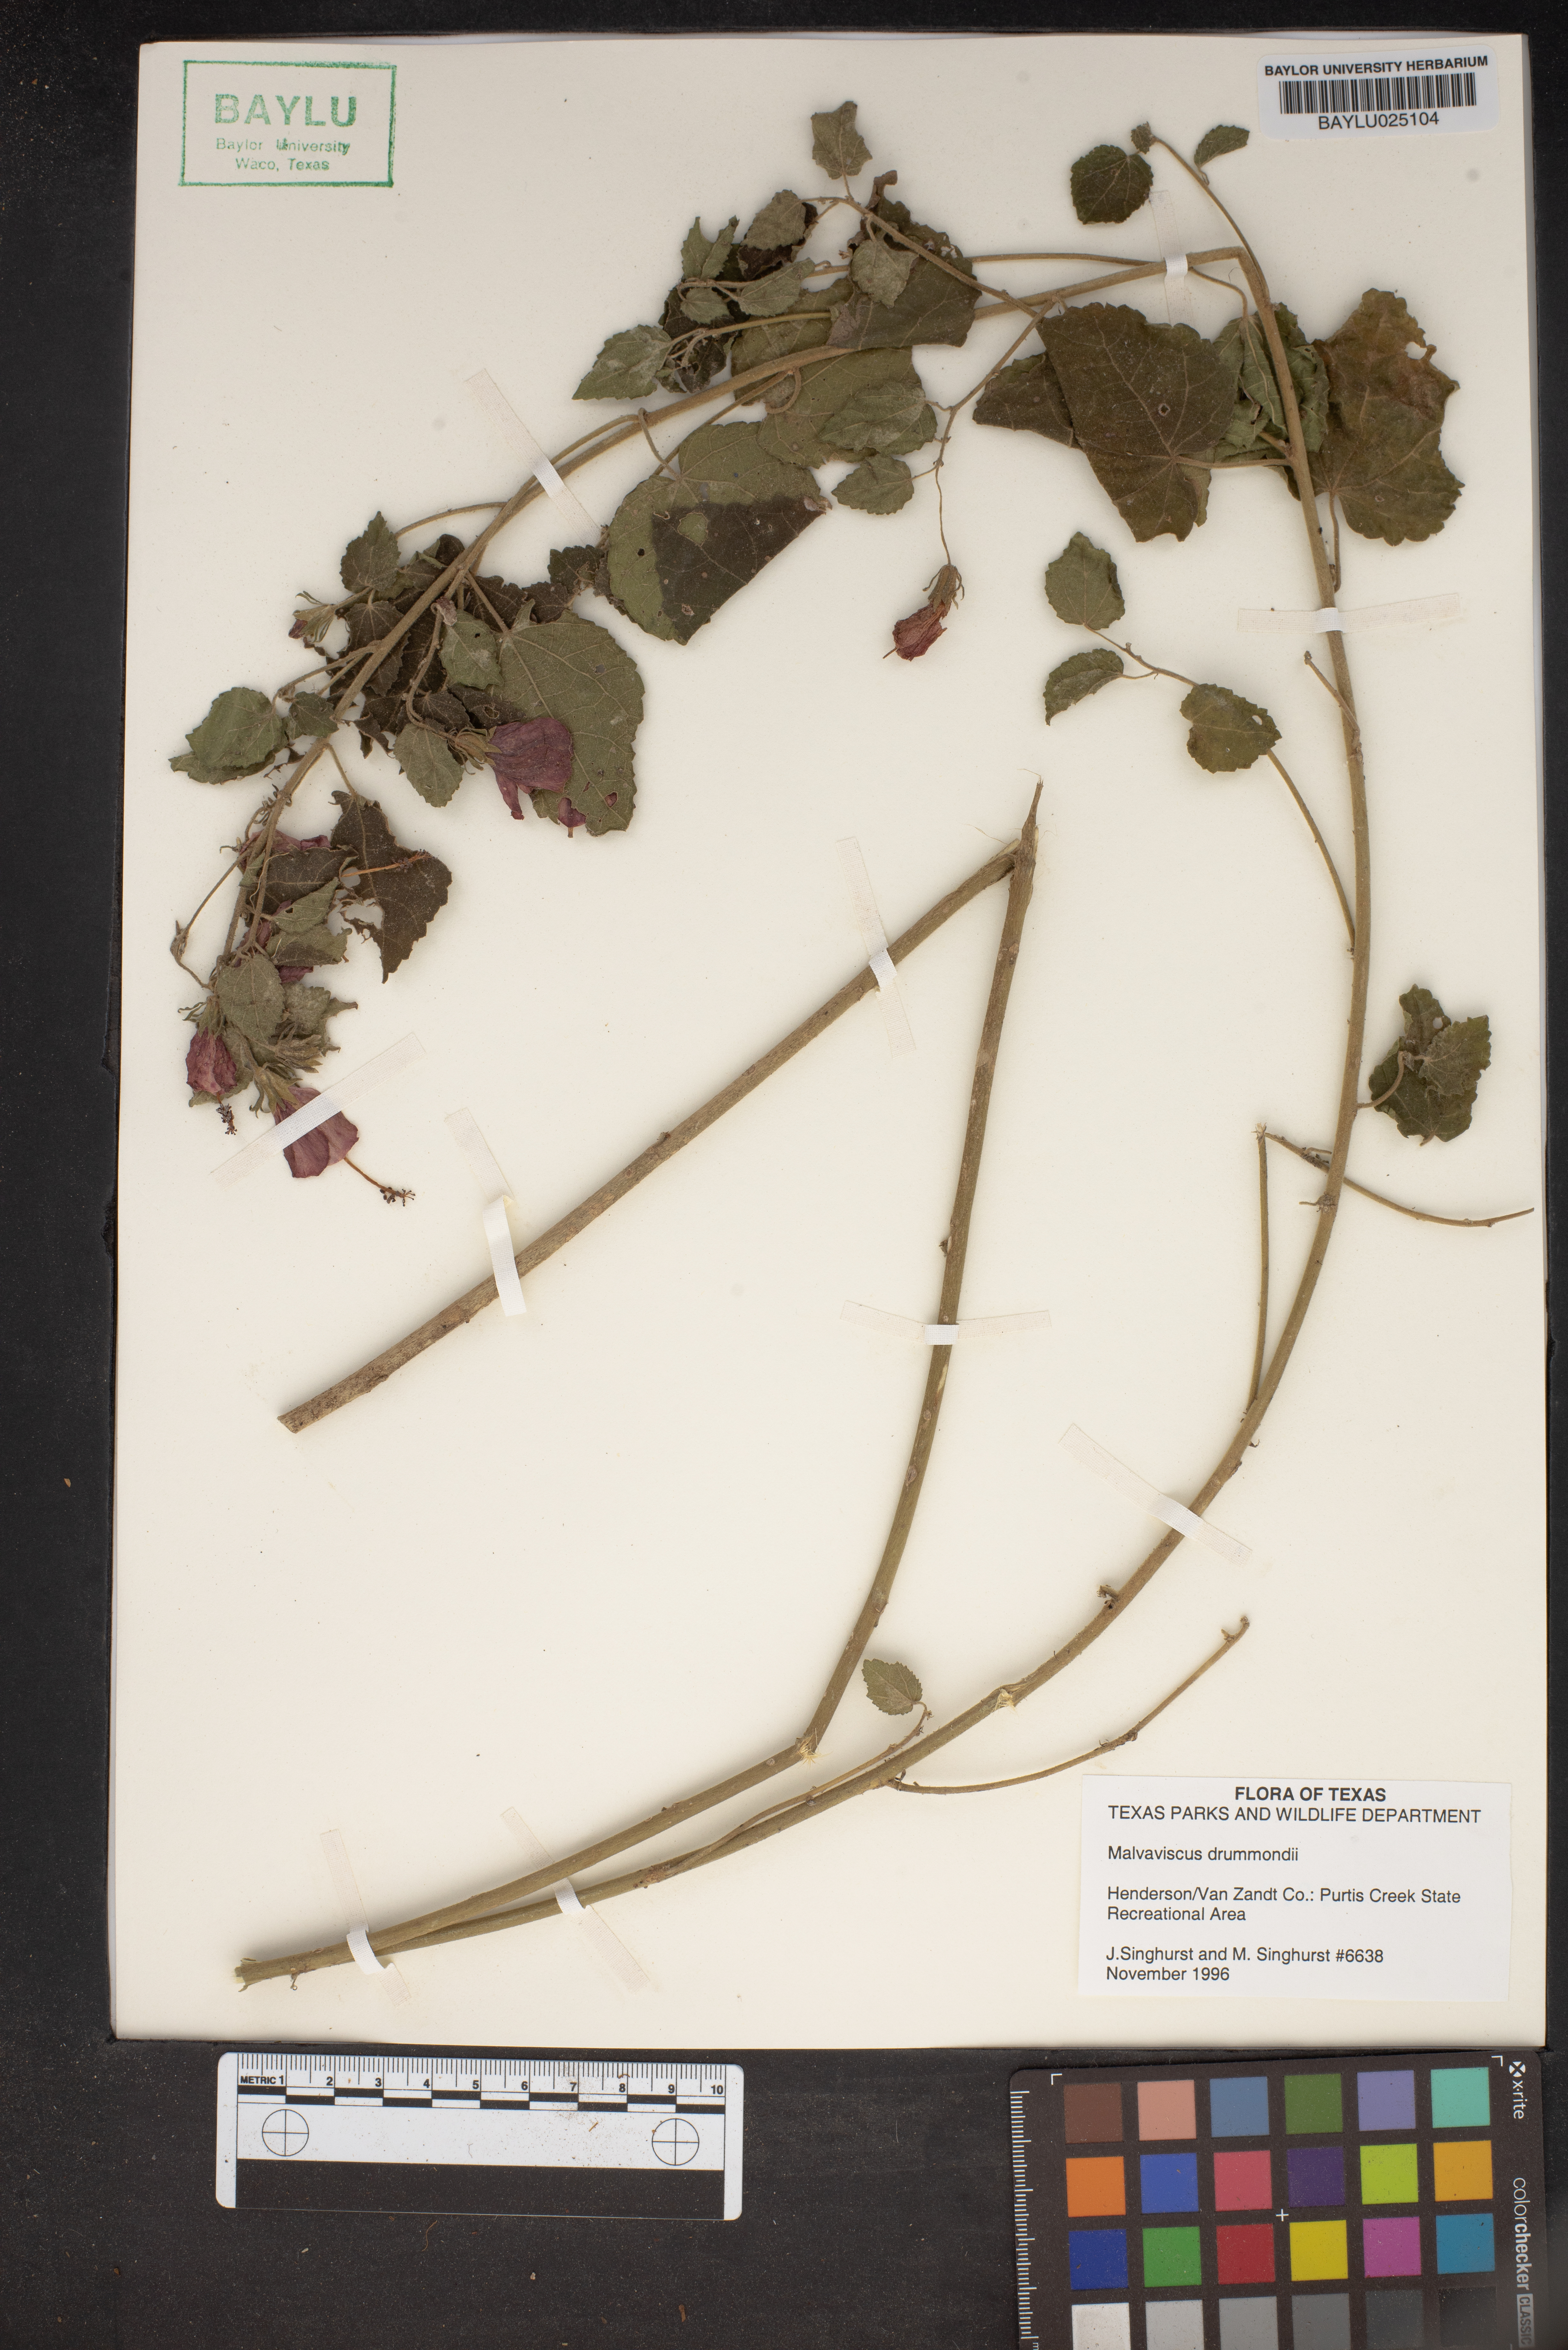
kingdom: Plantae
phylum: Tracheophyta
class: Magnoliopsida
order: Malvales
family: Malvaceae
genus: Malvaviscus
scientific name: Malvaviscus arboreus
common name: Wax mallow
